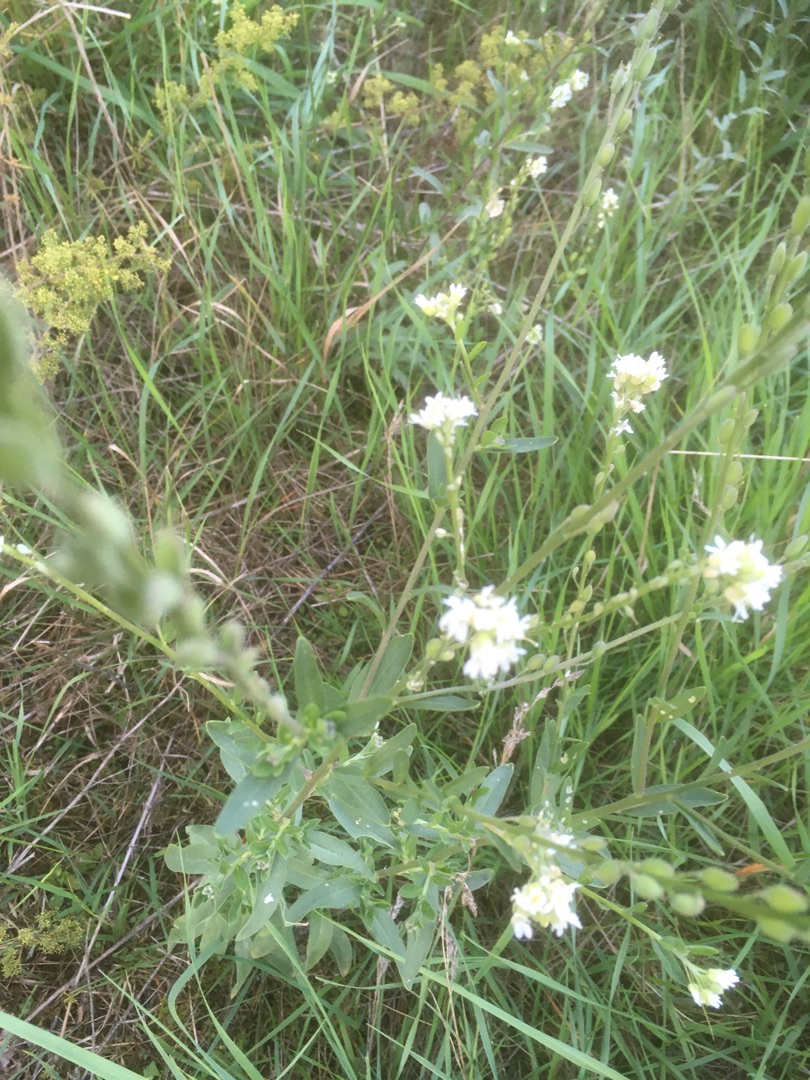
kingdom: Plantae
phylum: Tracheophyta
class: Magnoliopsida
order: Brassicales
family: Brassicaceae
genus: Berteroa
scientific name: Berteroa incana
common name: Kløvplade
